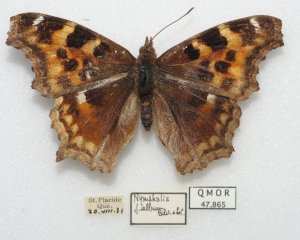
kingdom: Animalia
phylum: Arthropoda
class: Insecta
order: Lepidoptera
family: Nymphalidae
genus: Polygonia
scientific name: Polygonia vaualbum
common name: Compton Tortoiseshell
